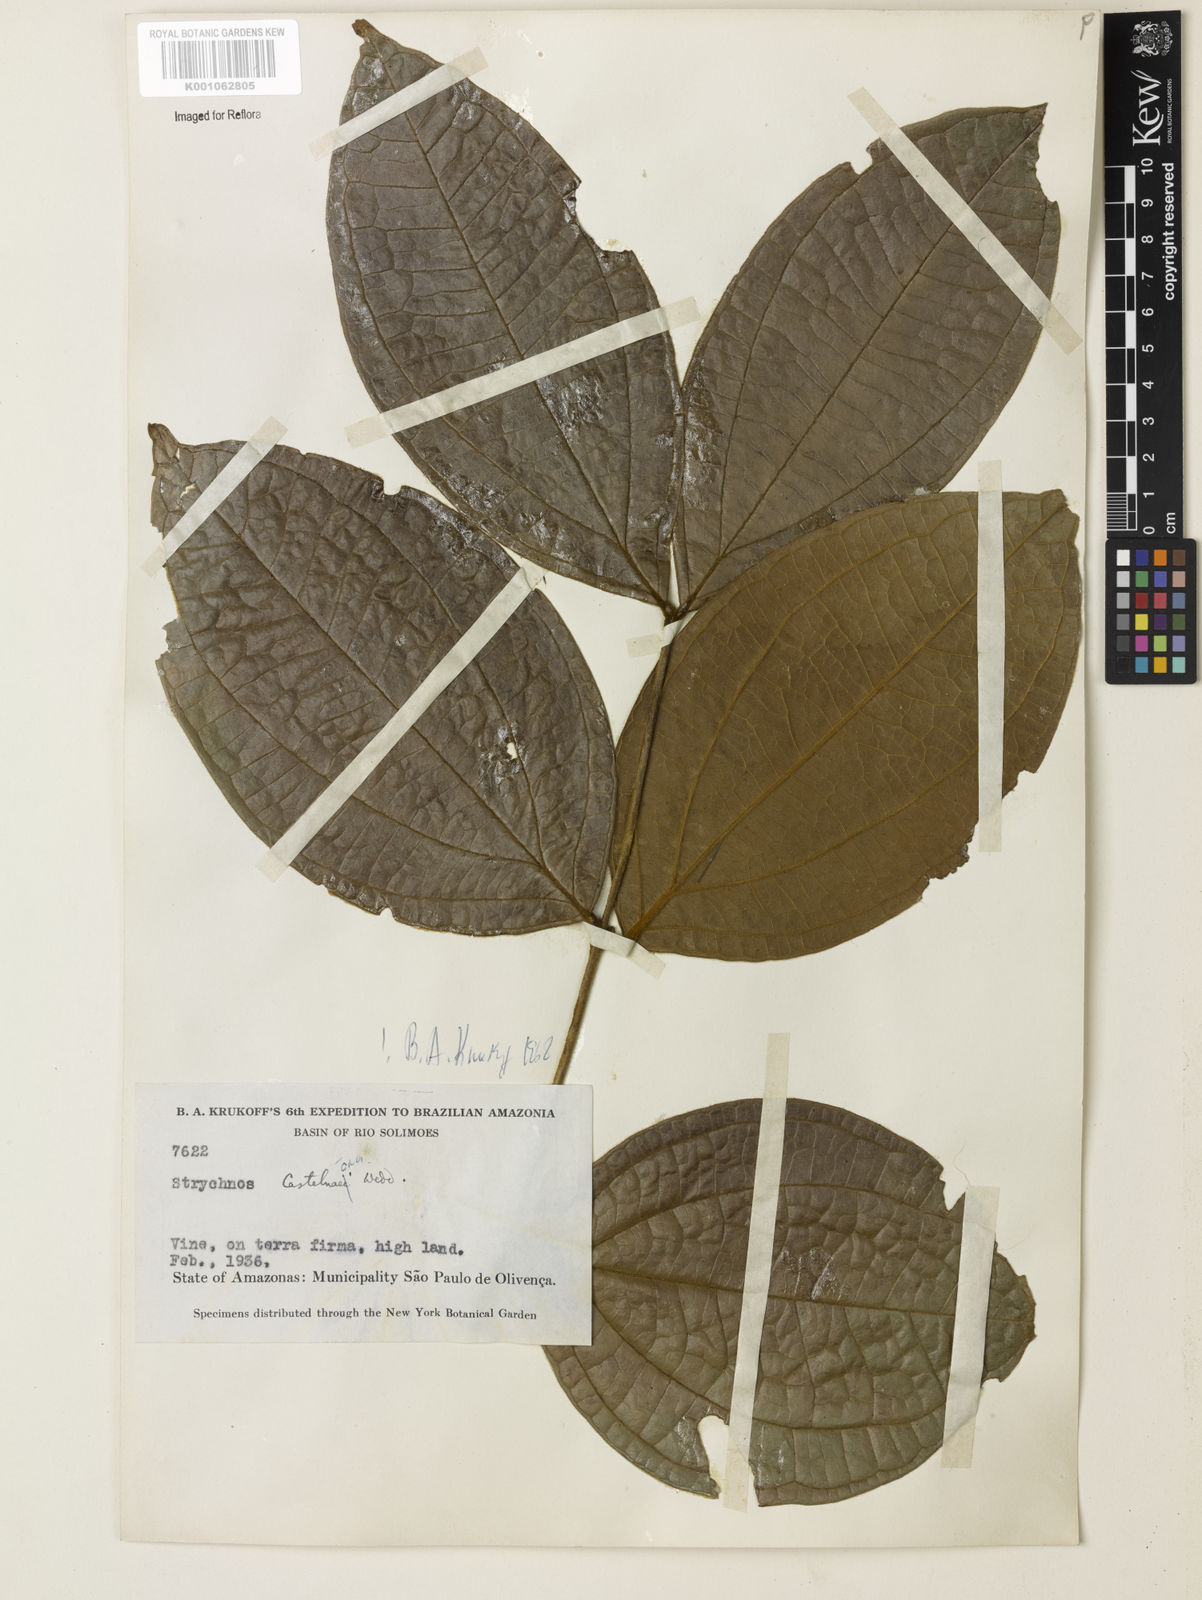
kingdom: Plantae
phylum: Tracheophyta
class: Magnoliopsida
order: Gentianales
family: Loganiaceae
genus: Strychnos
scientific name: Strychnos
